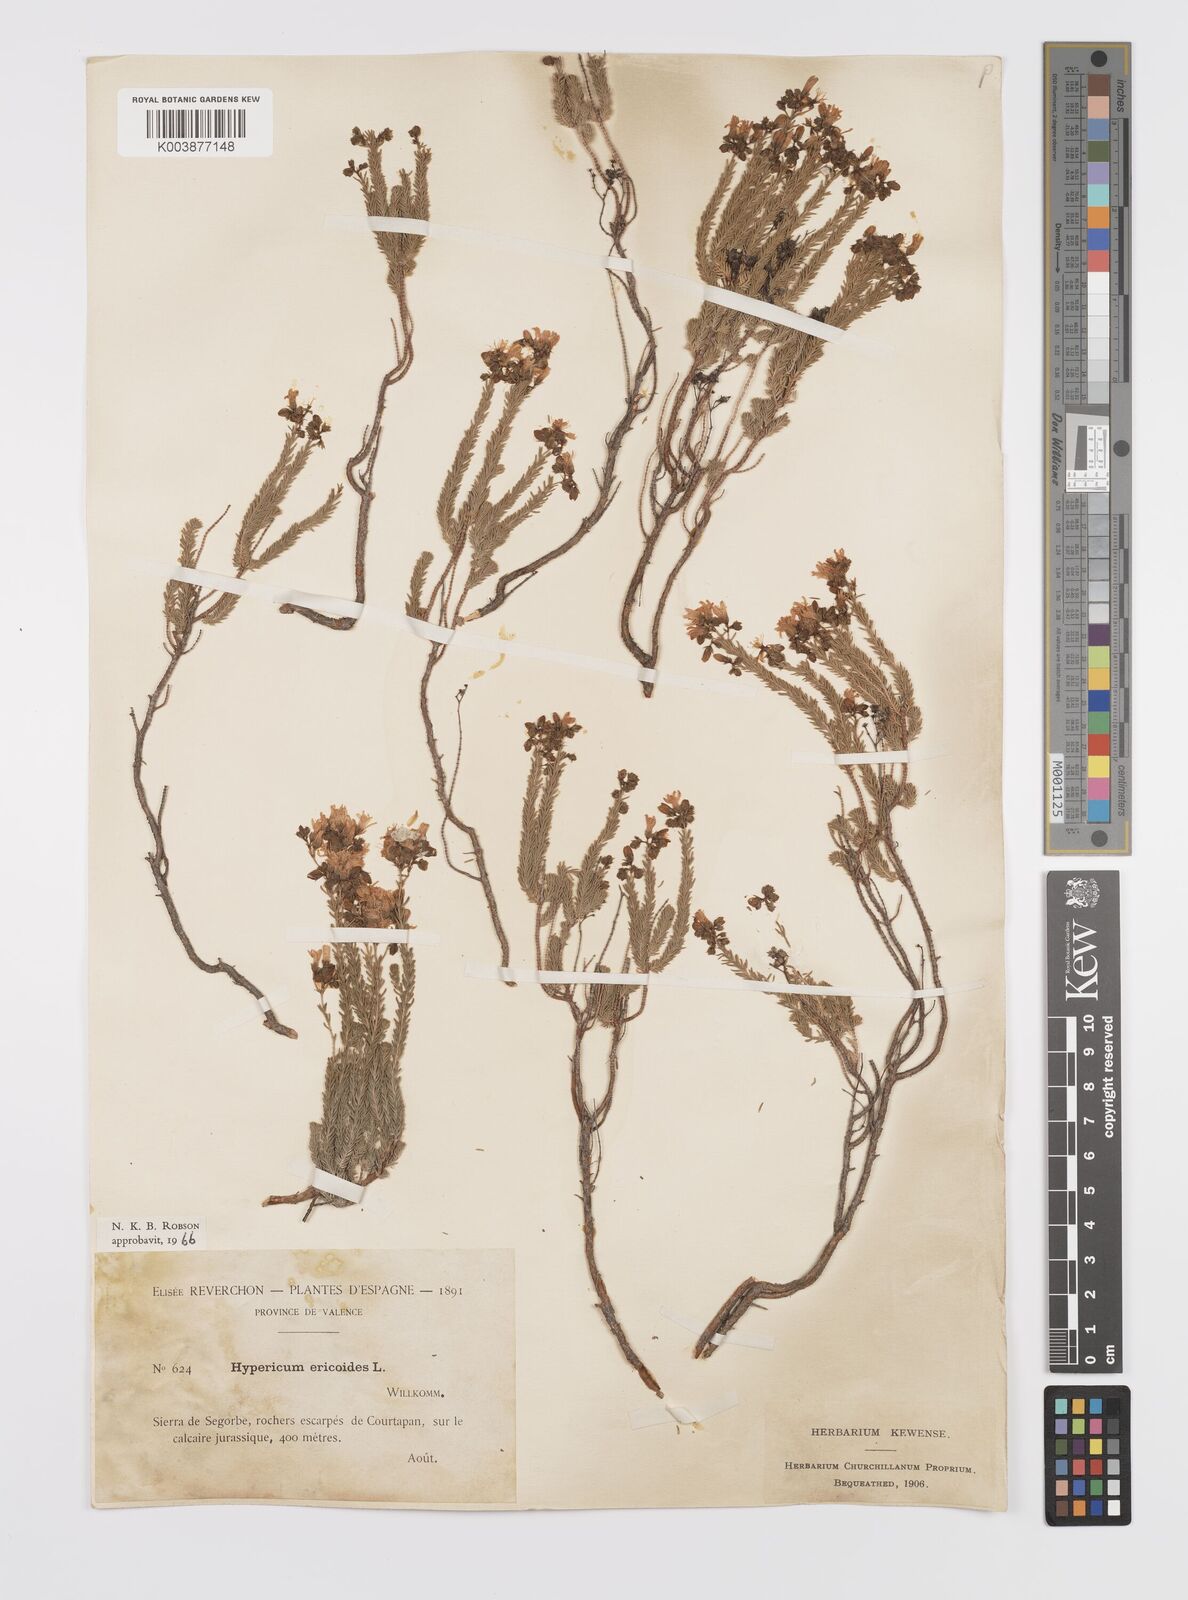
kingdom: Plantae
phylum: Tracheophyta
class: Magnoliopsida
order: Malpighiales
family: Hypericaceae
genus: Hypericum
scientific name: Hypericum ericoides
